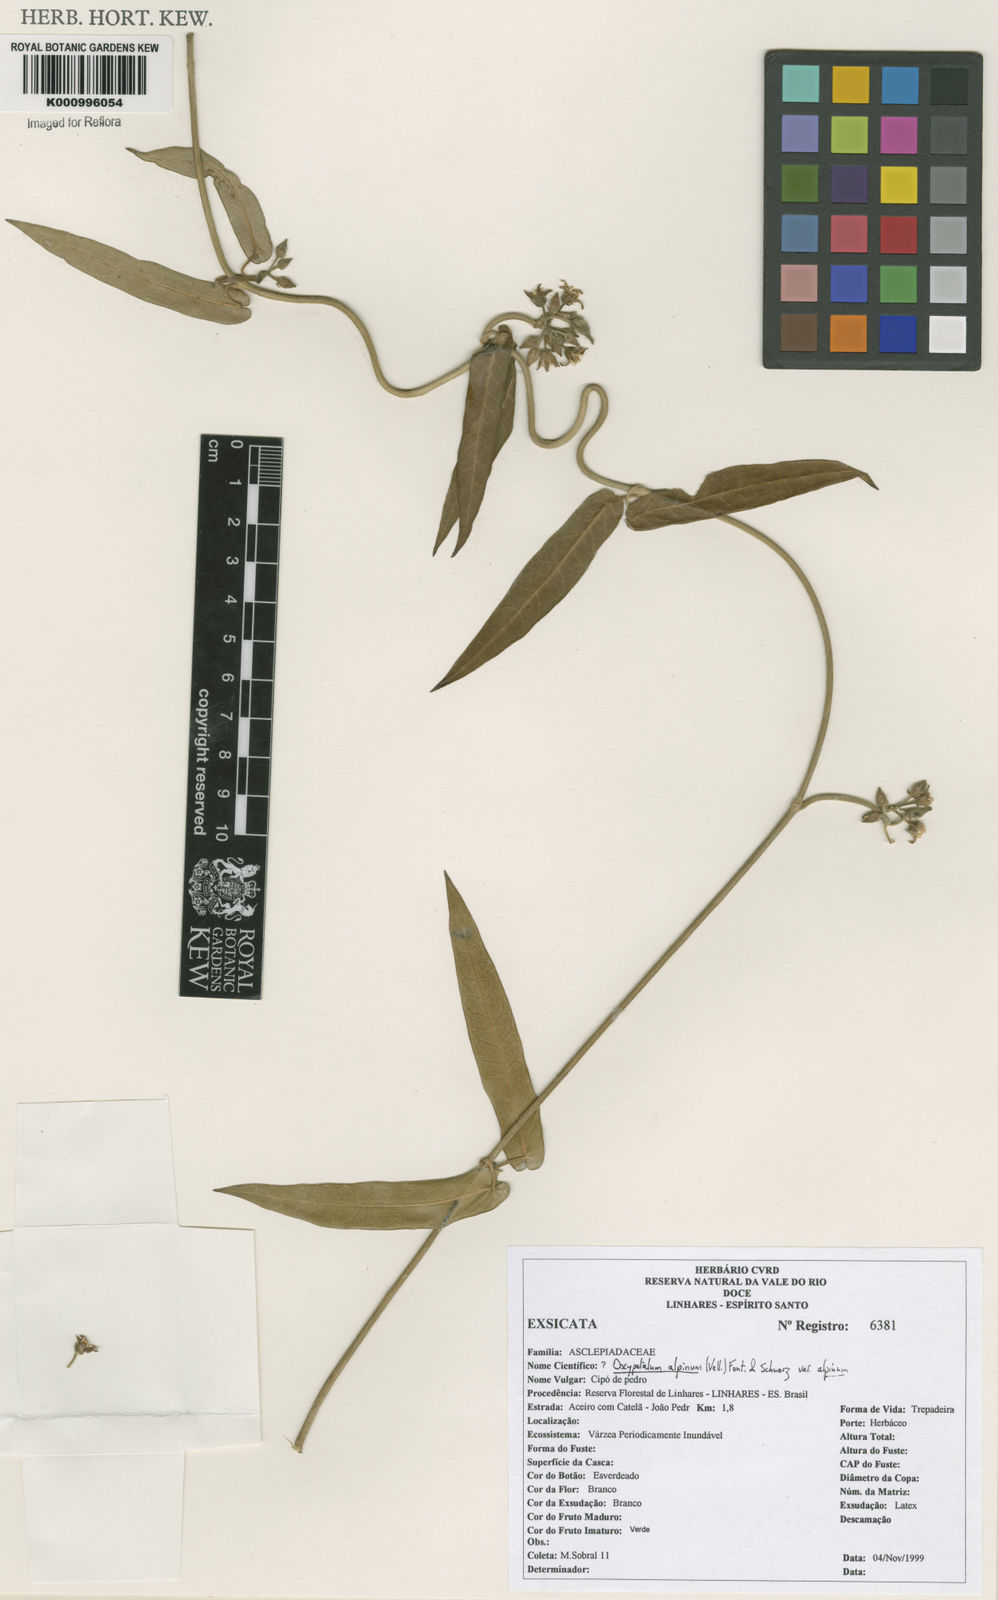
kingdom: Plantae
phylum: Tracheophyta
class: Magnoliopsida
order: Gentianales
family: Apocynaceae
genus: Oxypetalum
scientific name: Oxypetalum alpinum
